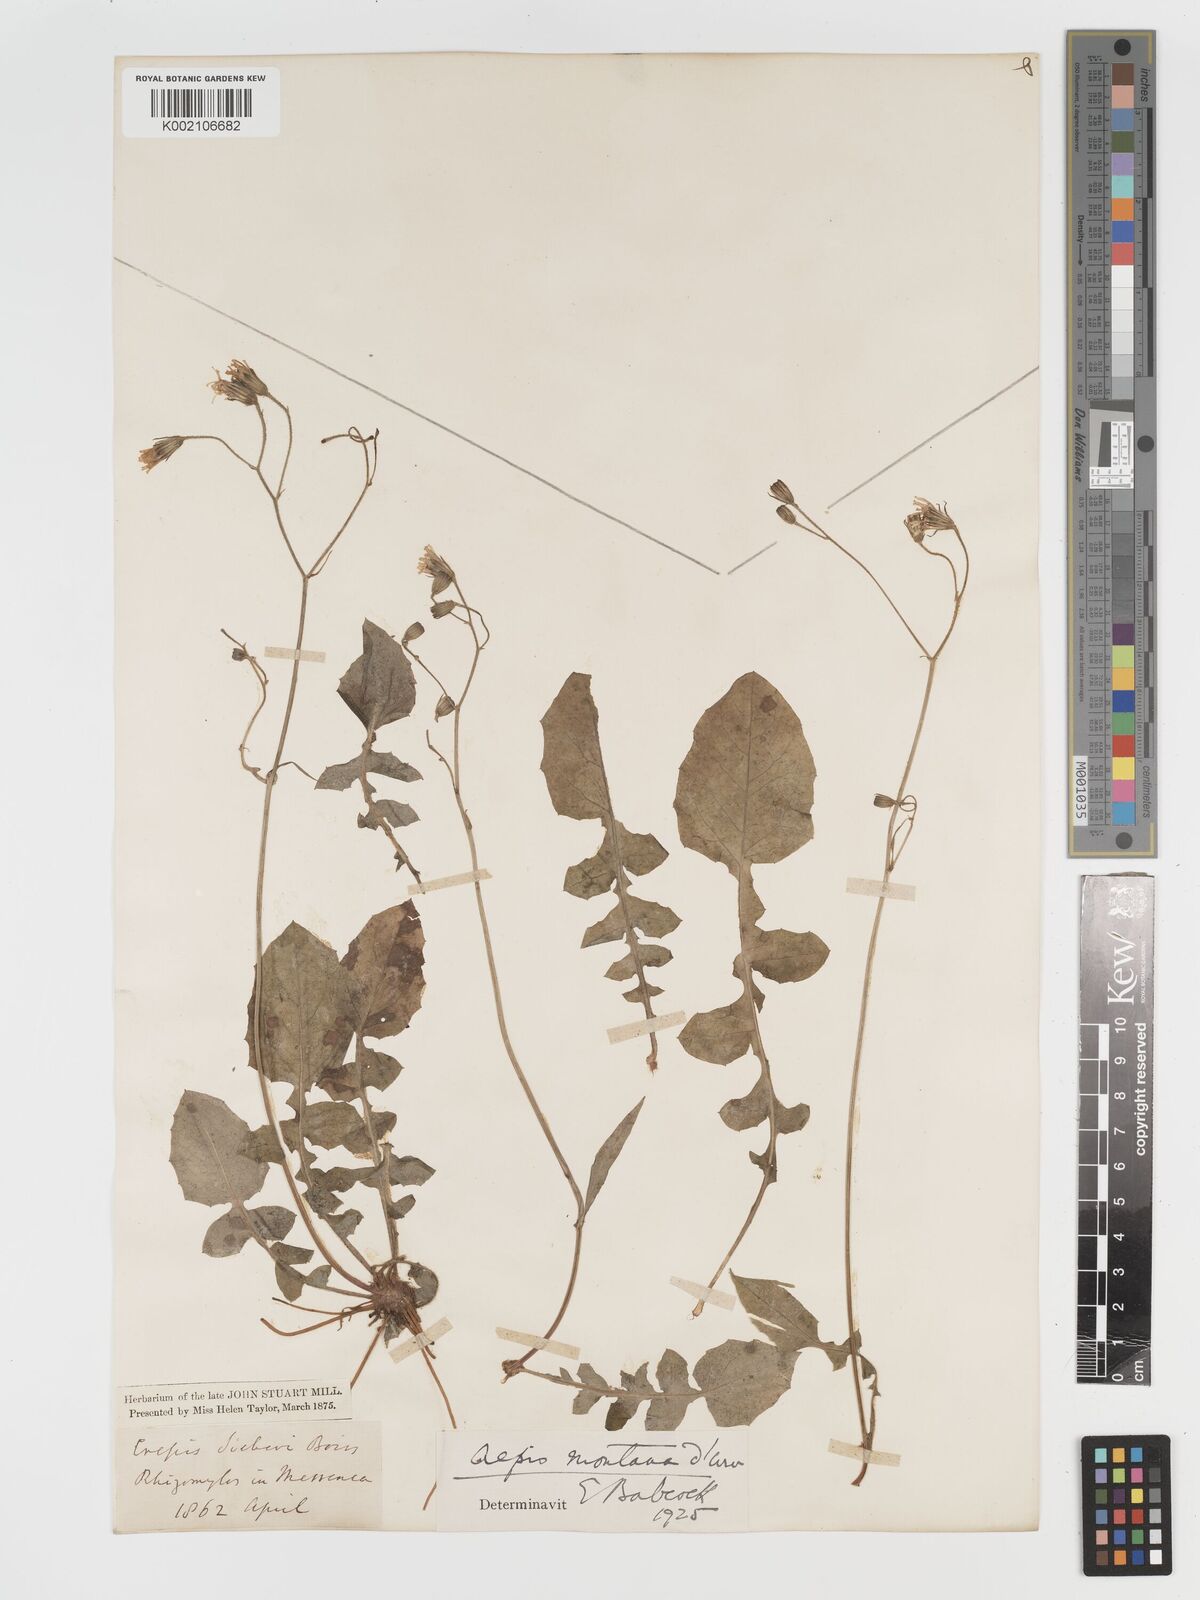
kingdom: Plantae
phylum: Tracheophyta
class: Magnoliopsida
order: Asterales
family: Asteraceae
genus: Crepis
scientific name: Crepis
